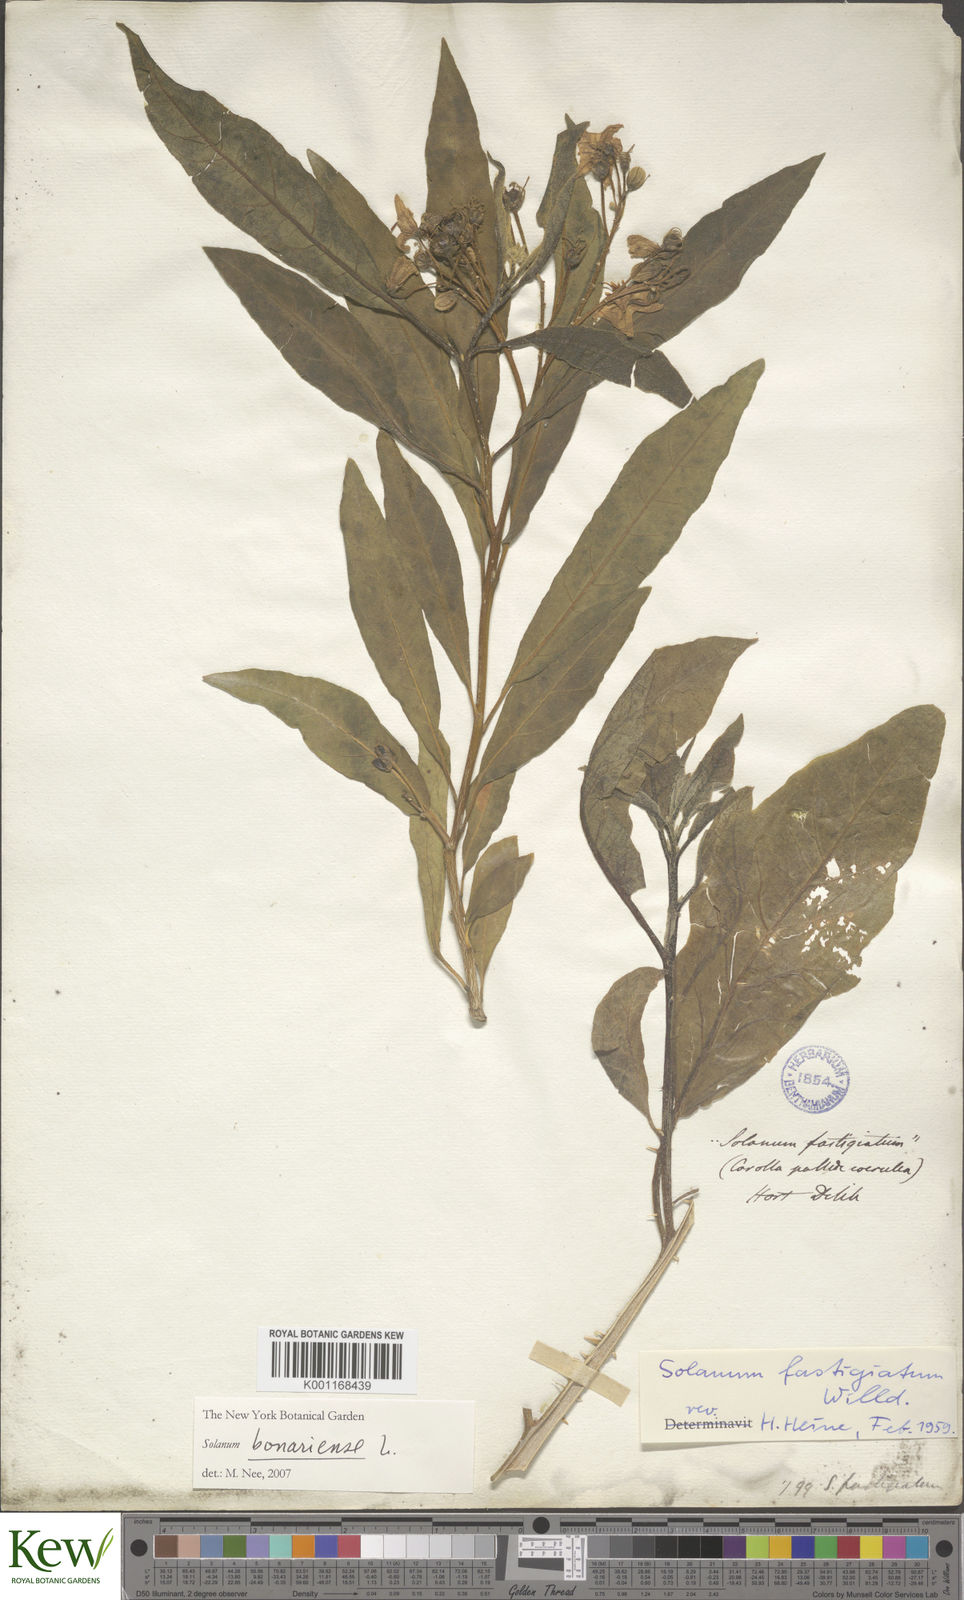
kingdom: Plantae
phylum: Tracheophyta
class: Magnoliopsida
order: Solanales
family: Solanaceae
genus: Solanum
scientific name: Solanum bonariense
